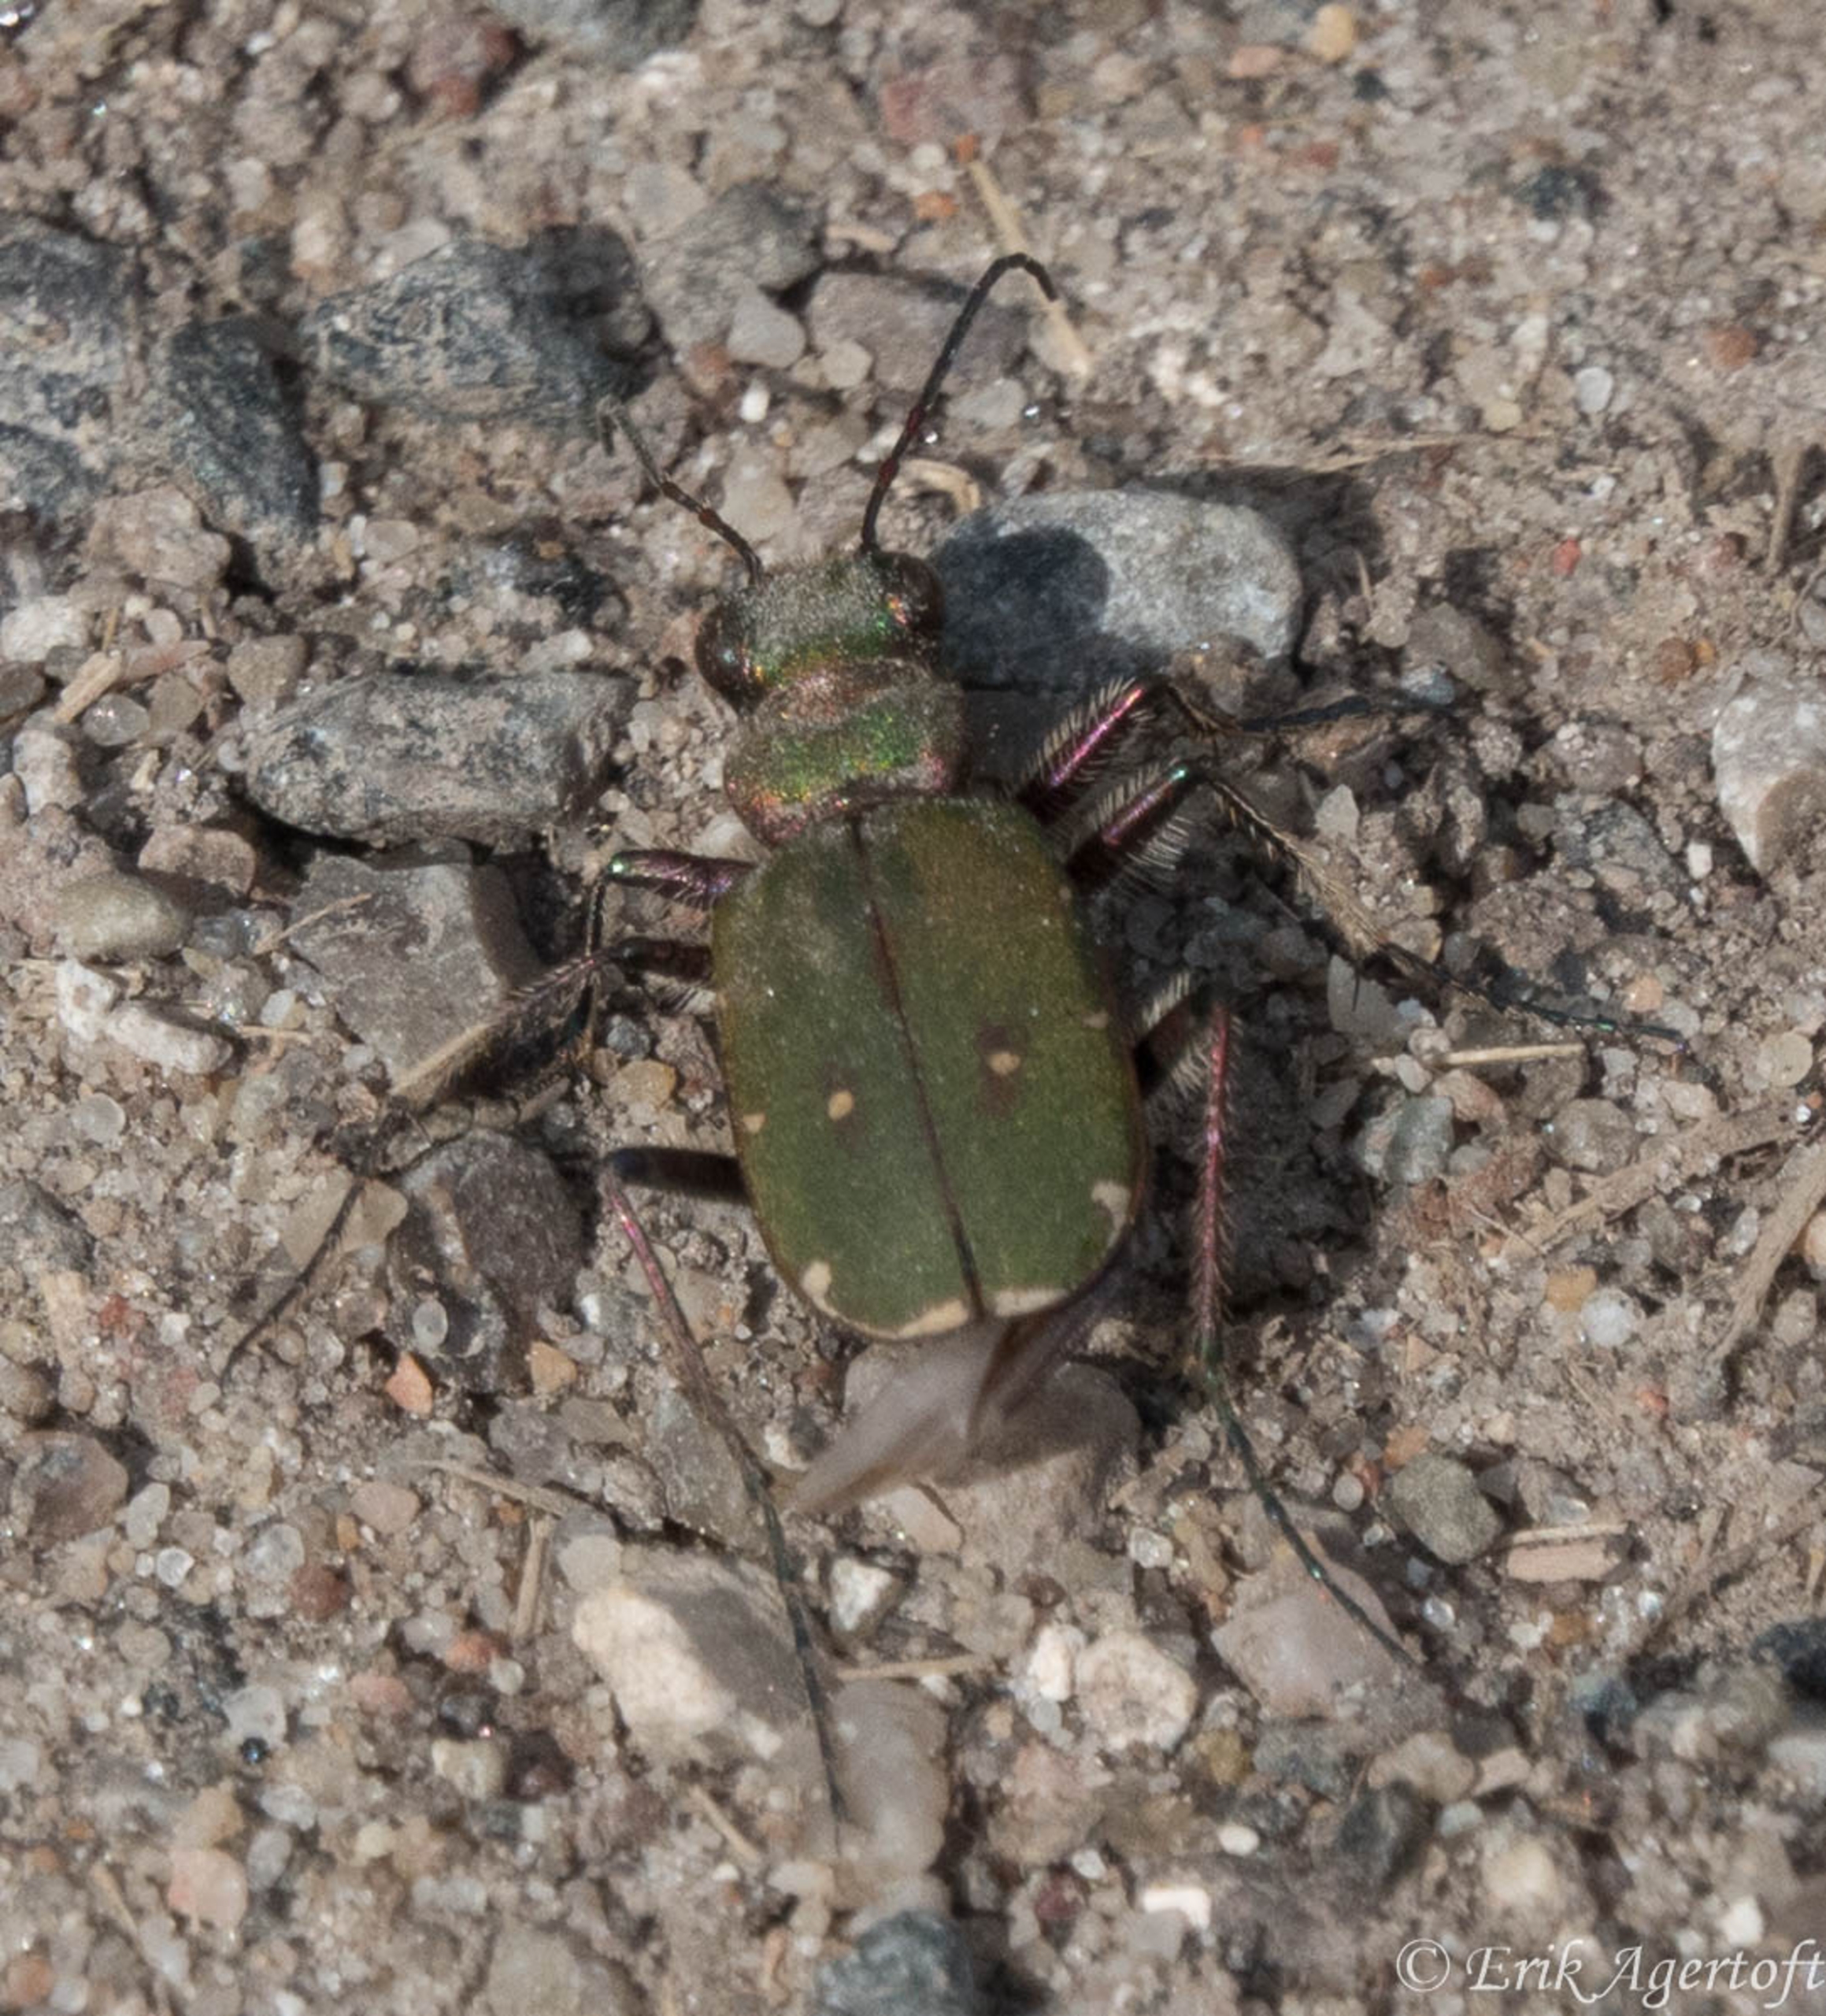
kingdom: Animalia
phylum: Arthropoda
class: Insecta
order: Coleoptera
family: Carabidae
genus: Cicindela
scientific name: Cicindela campestris
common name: Grøn sandspringer
